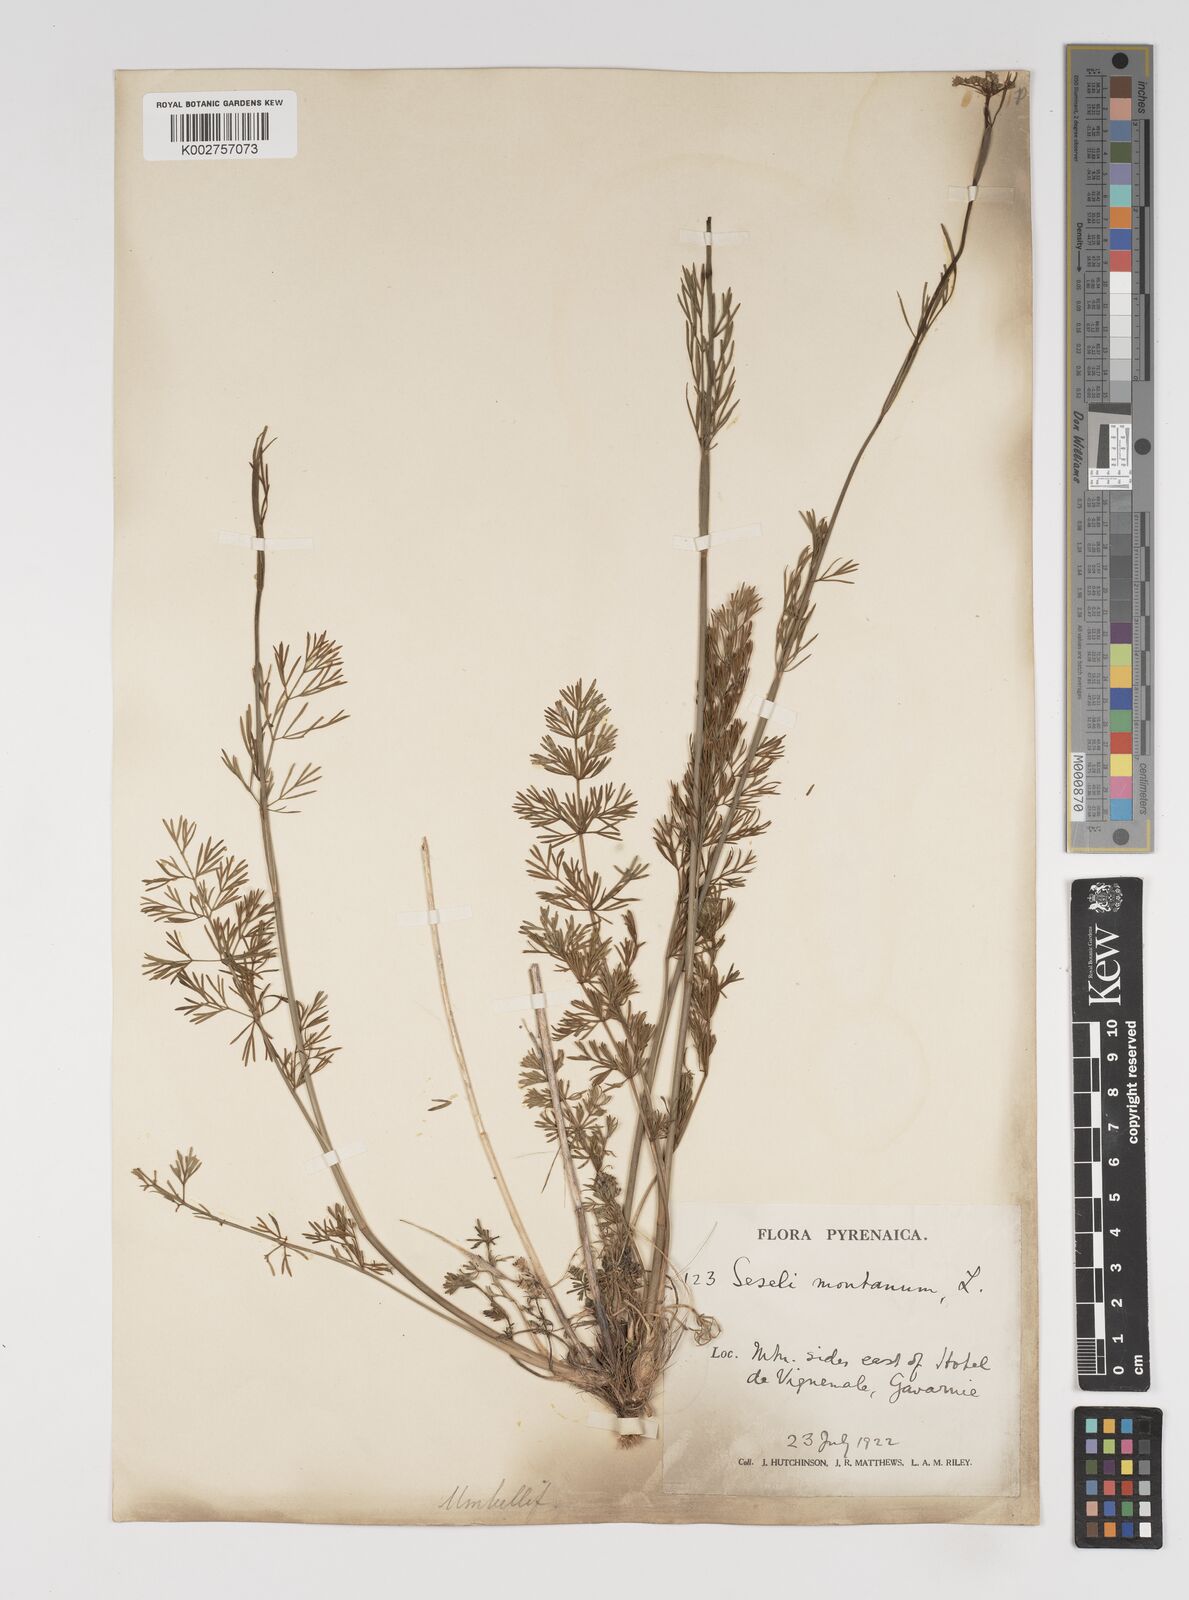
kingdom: Plantae
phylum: Tracheophyta
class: Magnoliopsida
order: Apiales
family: Apiaceae
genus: Seseli
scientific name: Seseli montanum
